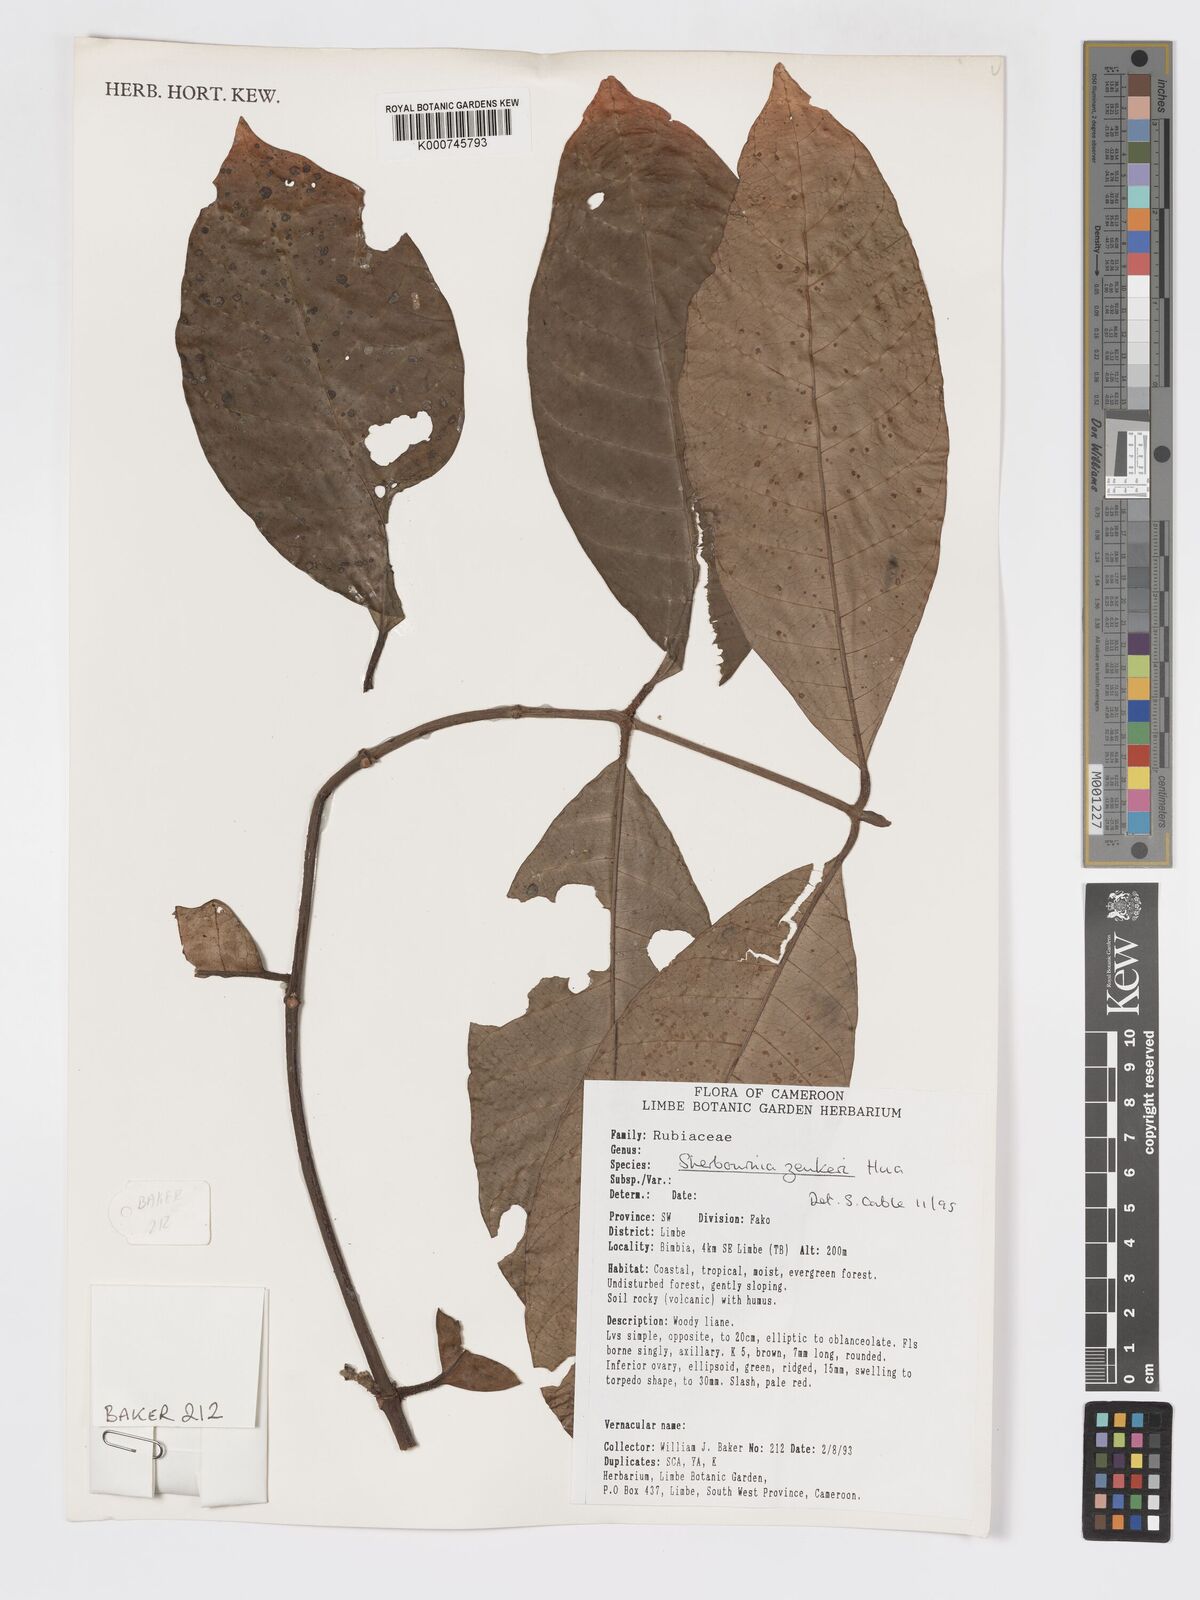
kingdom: Plantae
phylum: Tracheophyta
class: Magnoliopsida
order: Gentianales
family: Rubiaceae
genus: Sherbournia
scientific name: Sherbournia zenkeri
